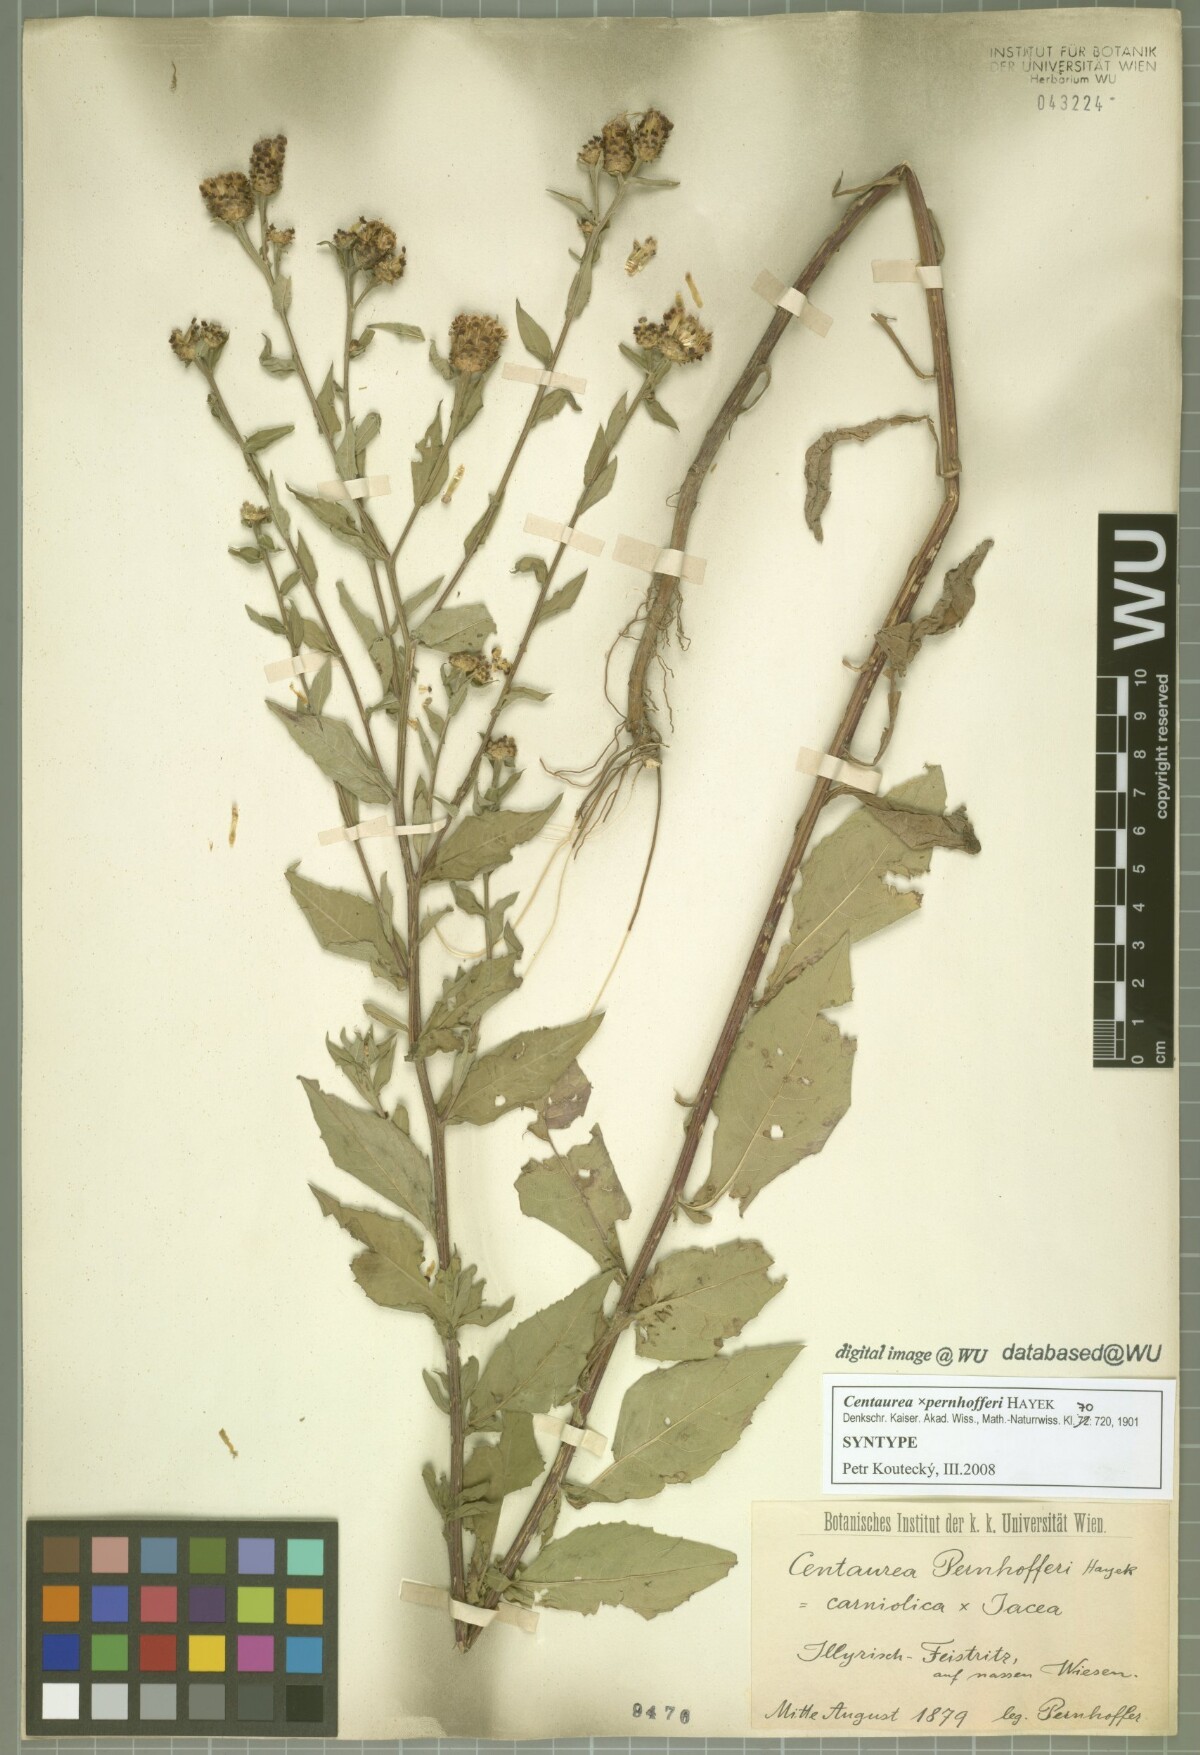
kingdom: Plantae
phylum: Tracheophyta
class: Magnoliopsida
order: Asterales
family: Asteraceae
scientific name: Asteraceae
